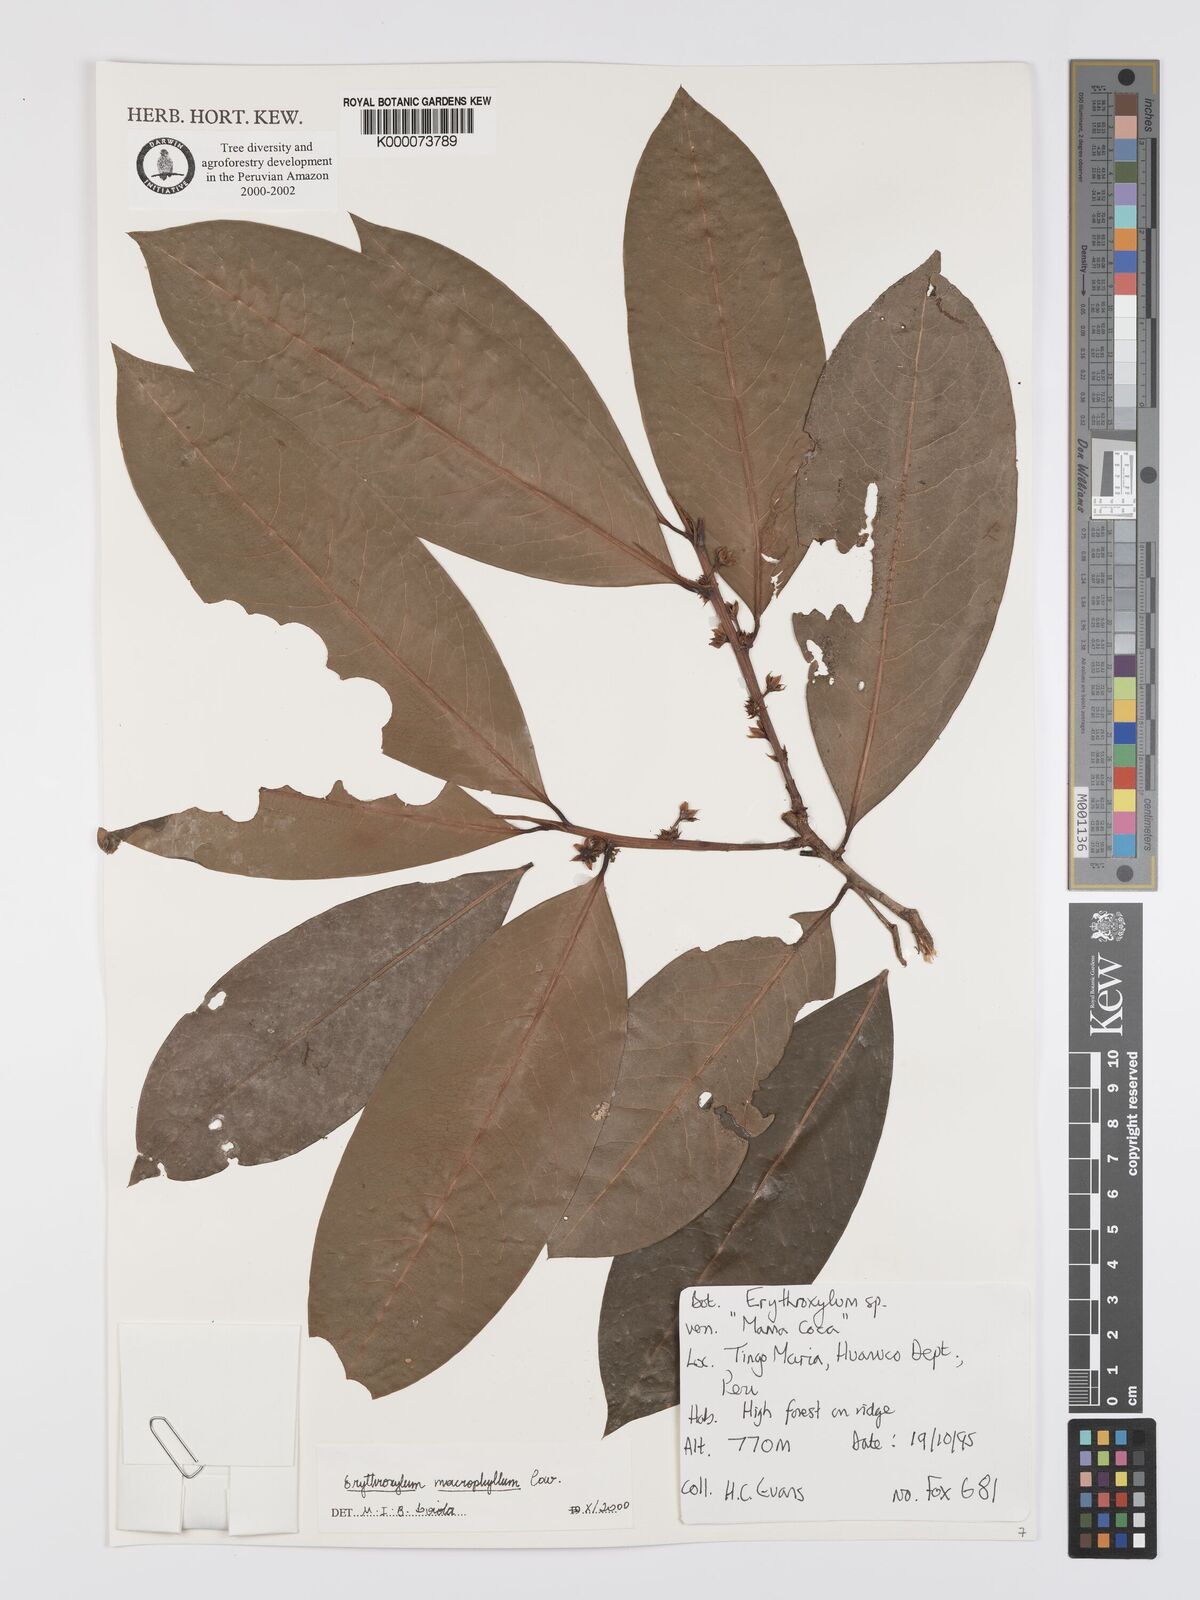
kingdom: Plantae
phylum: Tracheophyta
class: Magnoliopsida
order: Malpighiales
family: Erythroxylaceae
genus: Erythroxylum
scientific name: Erythroxylum
